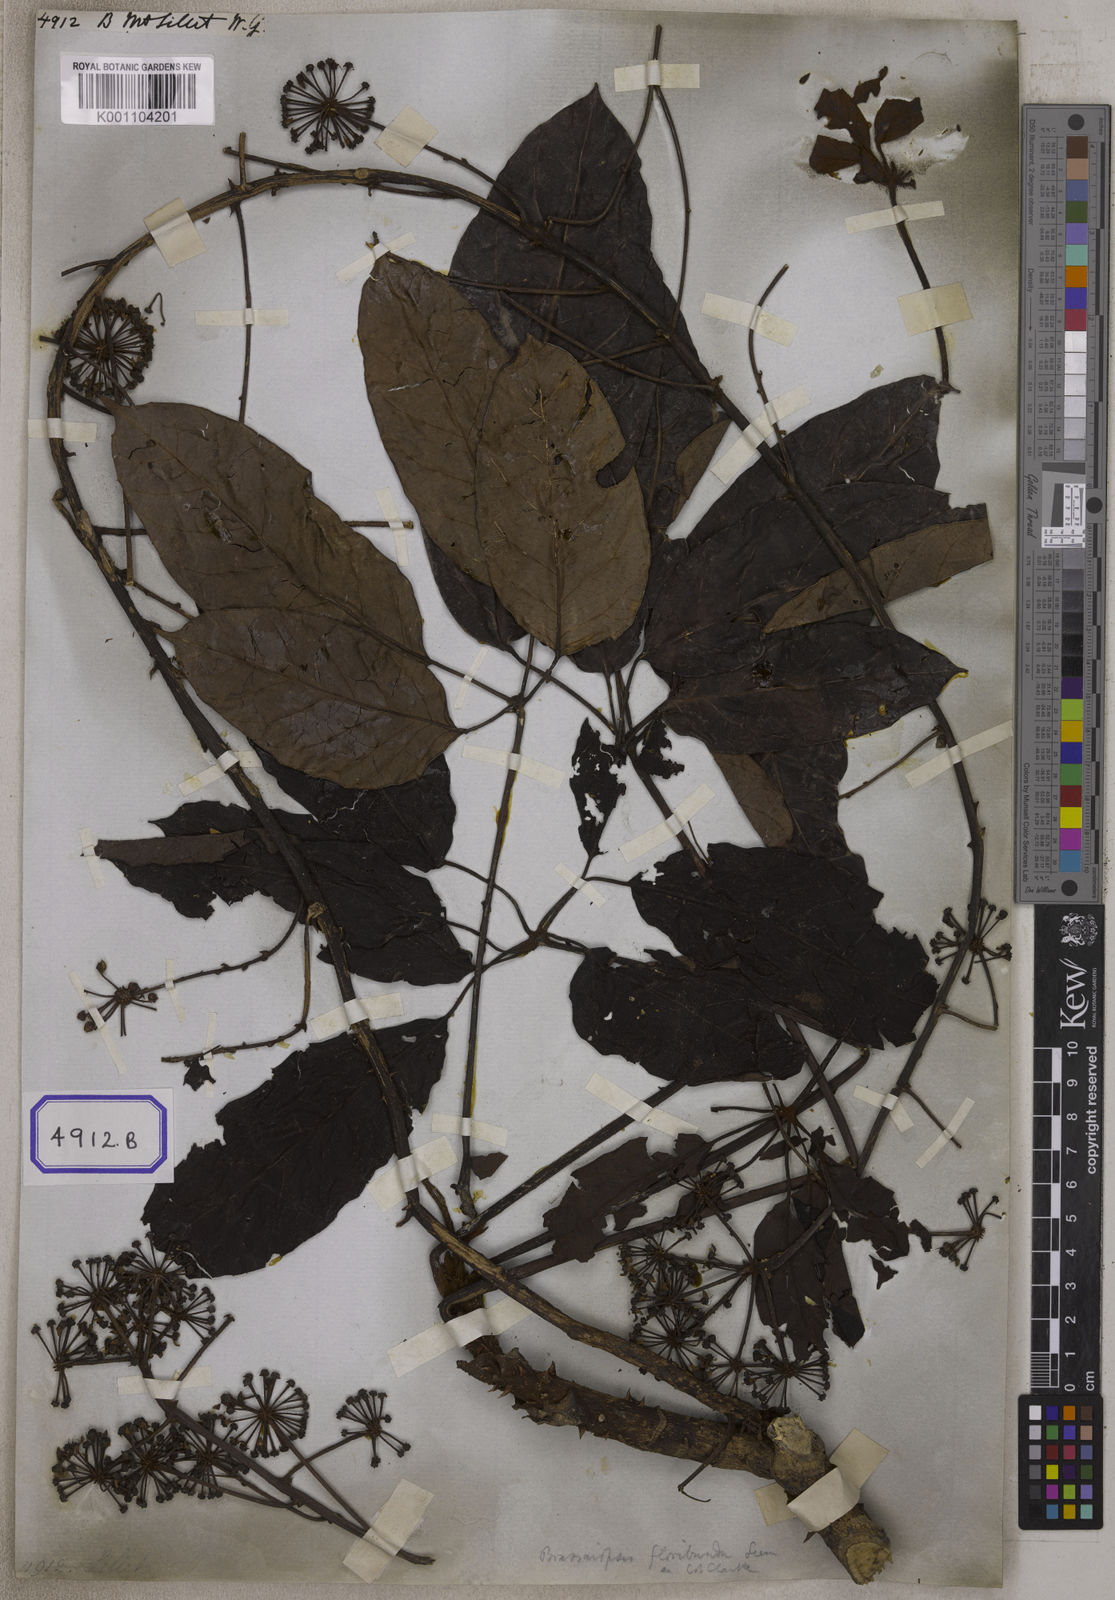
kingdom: Plantae
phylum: Tracheophyta
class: Magnoliopsida
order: Apiales
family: Araliaceae
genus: Hedera
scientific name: Hedera
